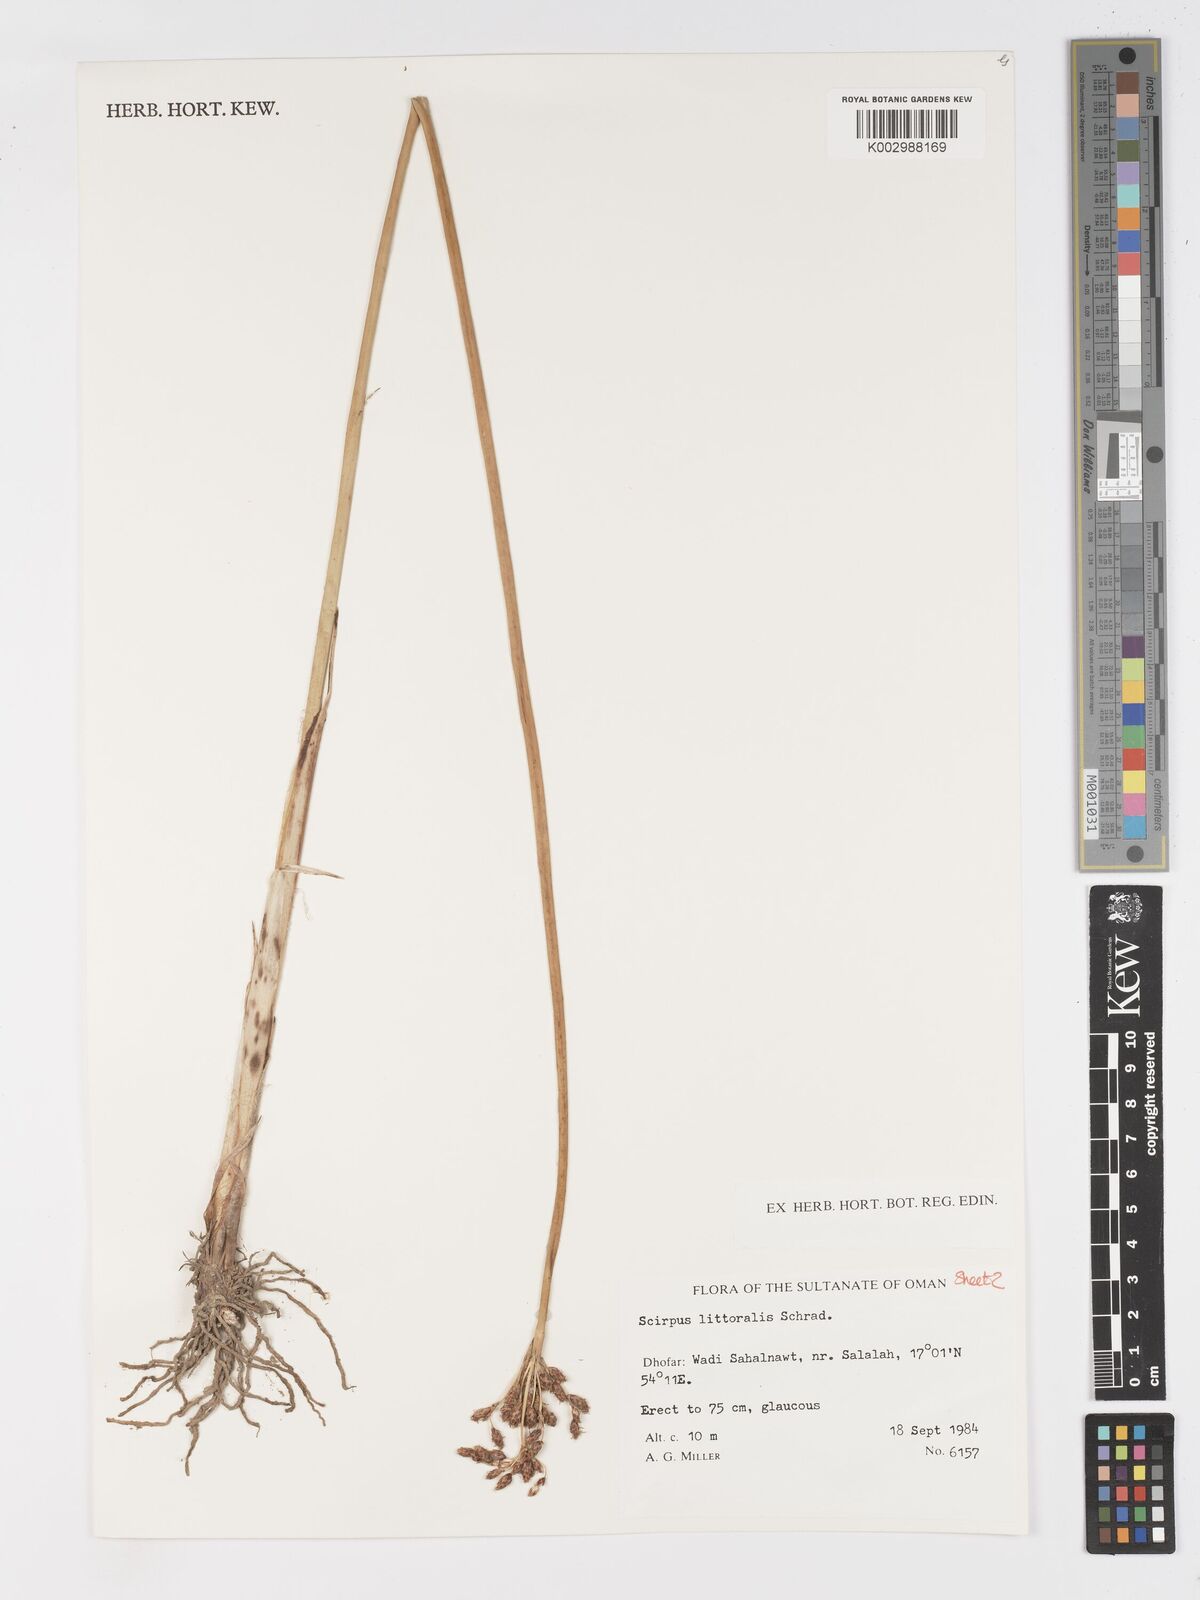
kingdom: Plantae
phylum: Tracheophyta
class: Liliopsida
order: Poales
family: Cyperaceae
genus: Schoenoplectus
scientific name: Schoenoplectus litoralis
